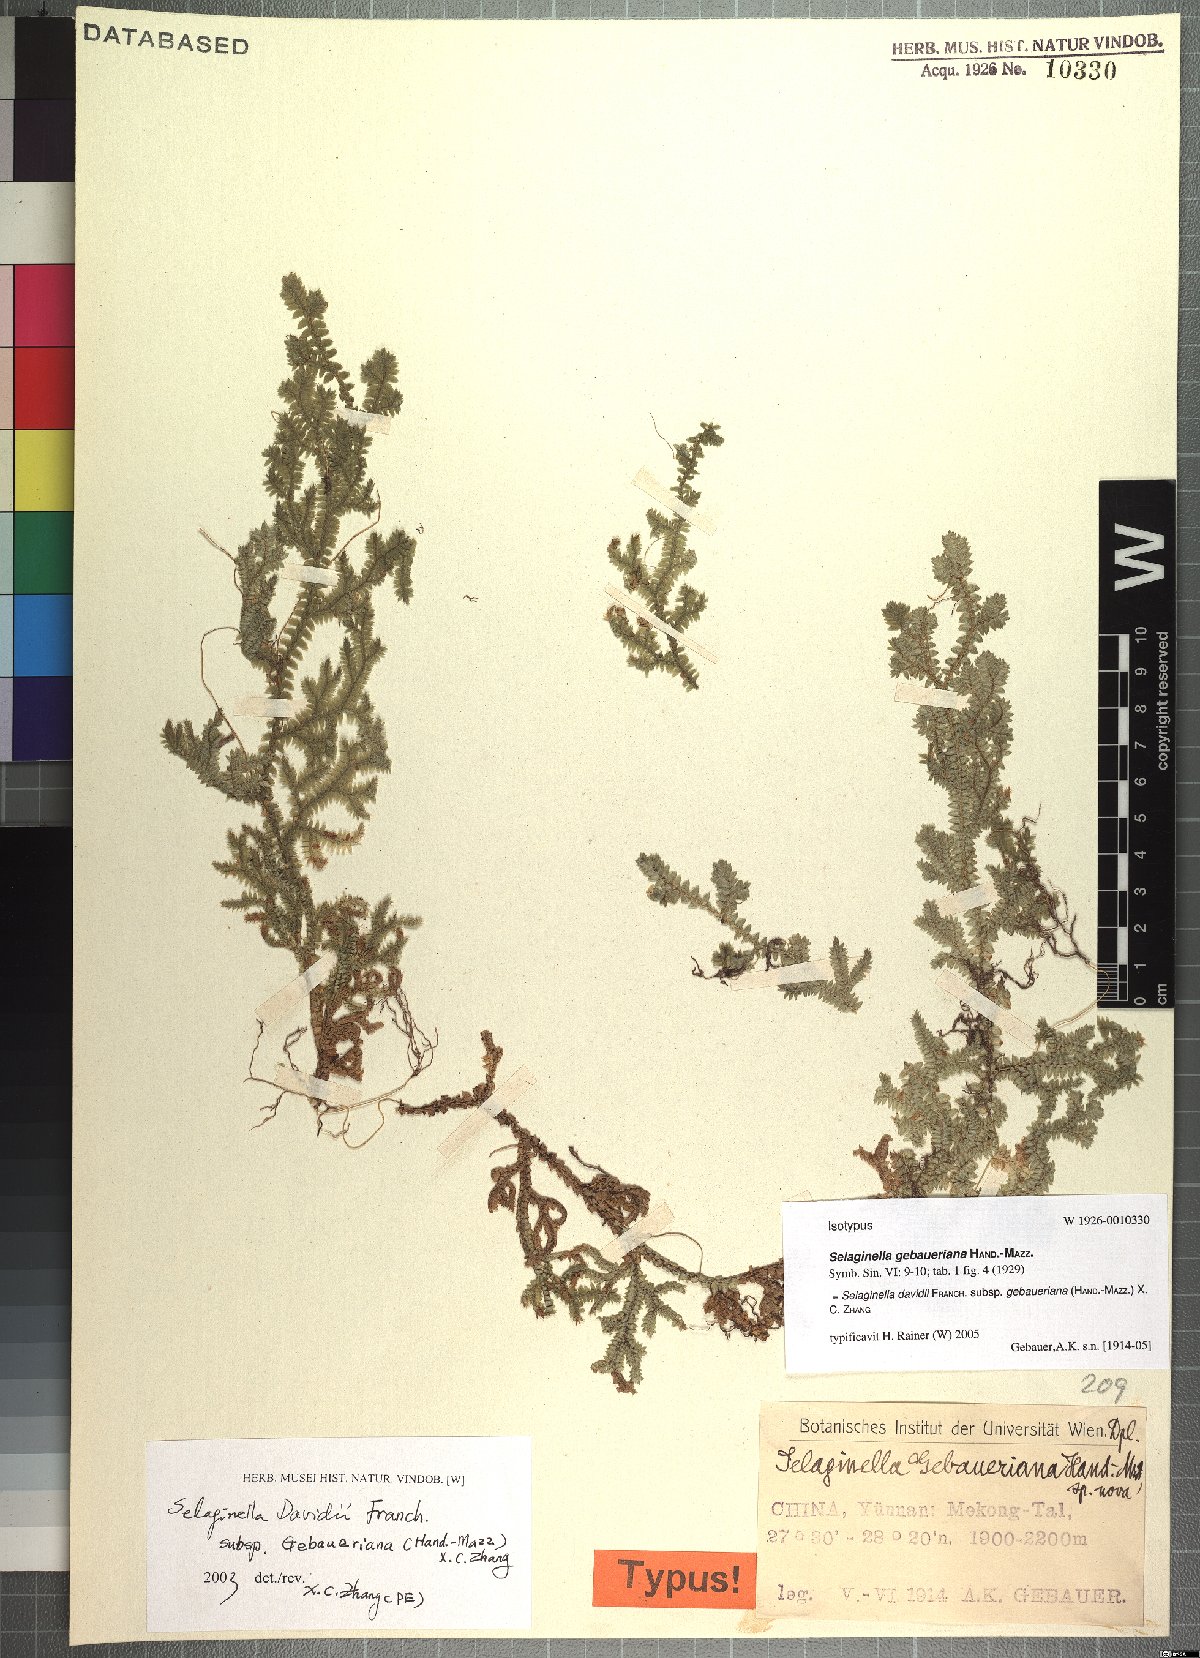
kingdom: Plantae
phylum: Tracheophyta
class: Lycopodiopsida
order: Selaginellales
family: Selaginellaceae
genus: Selaginella
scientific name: Selaginella davidii
